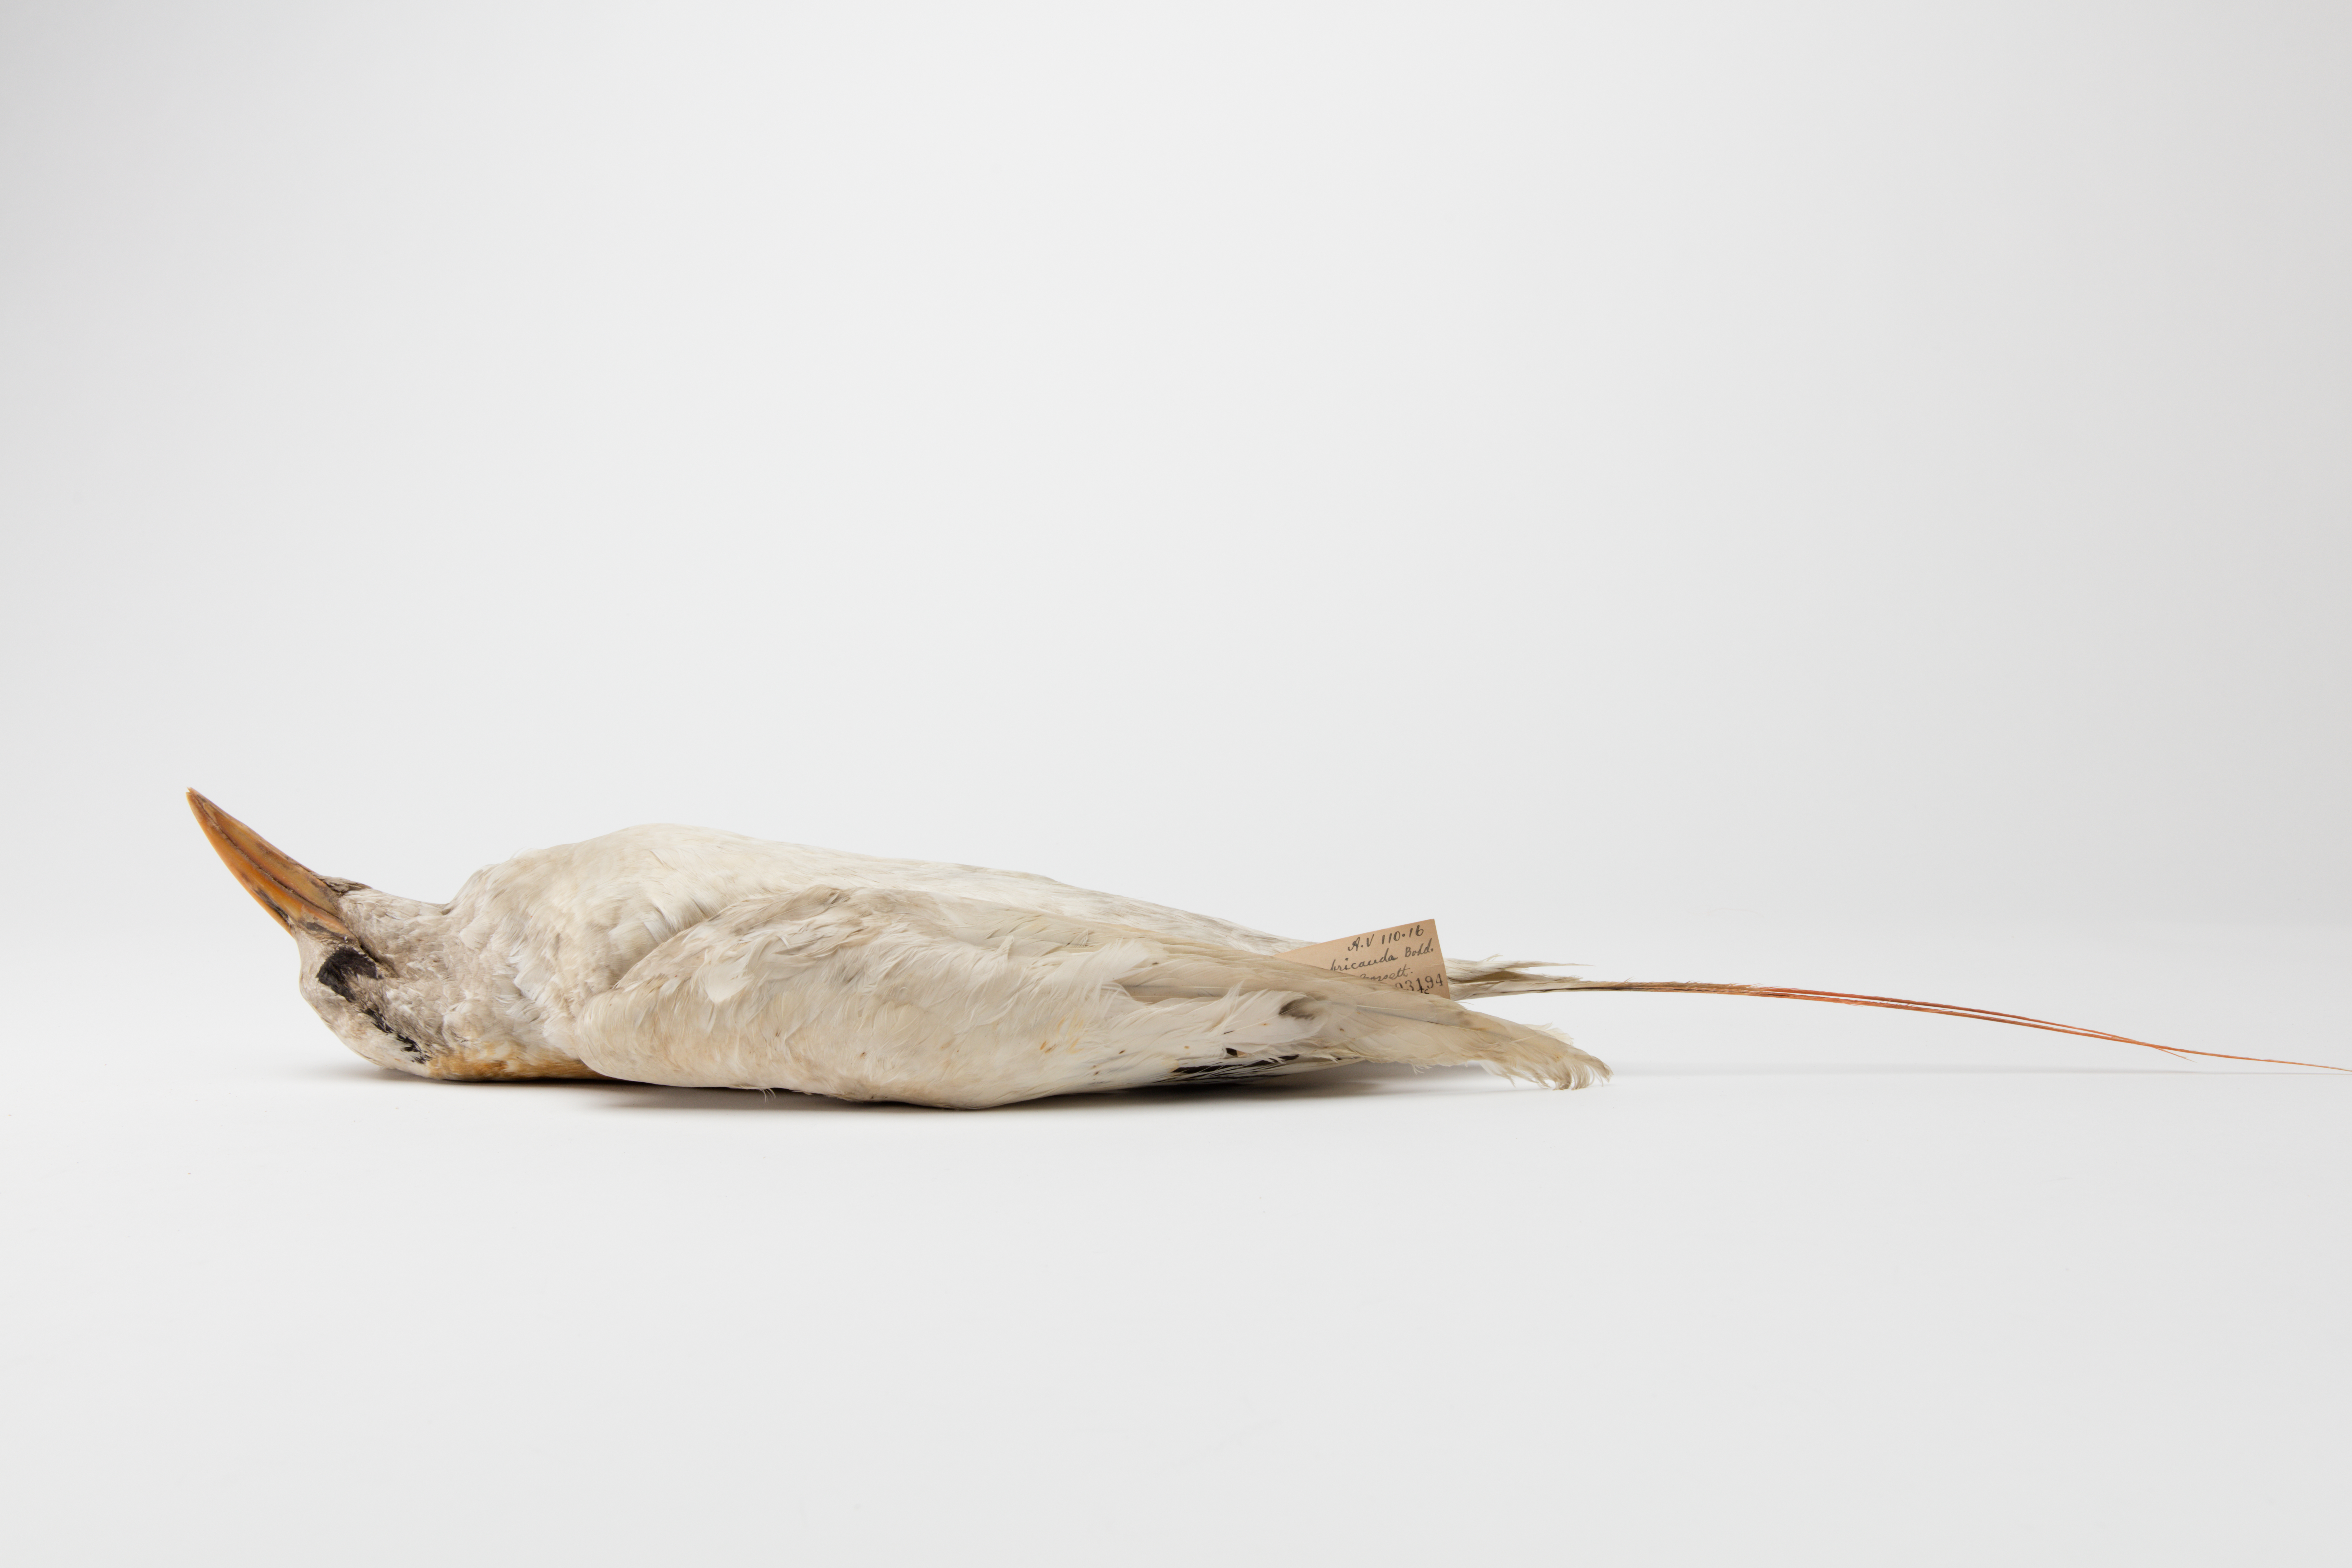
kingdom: Animalia
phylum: Chordata
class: Aves
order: Phaethontiformes
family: Phaethontidae
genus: Phaethon
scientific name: Phaethon rubricauda
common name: Red-tailed tropicbird
